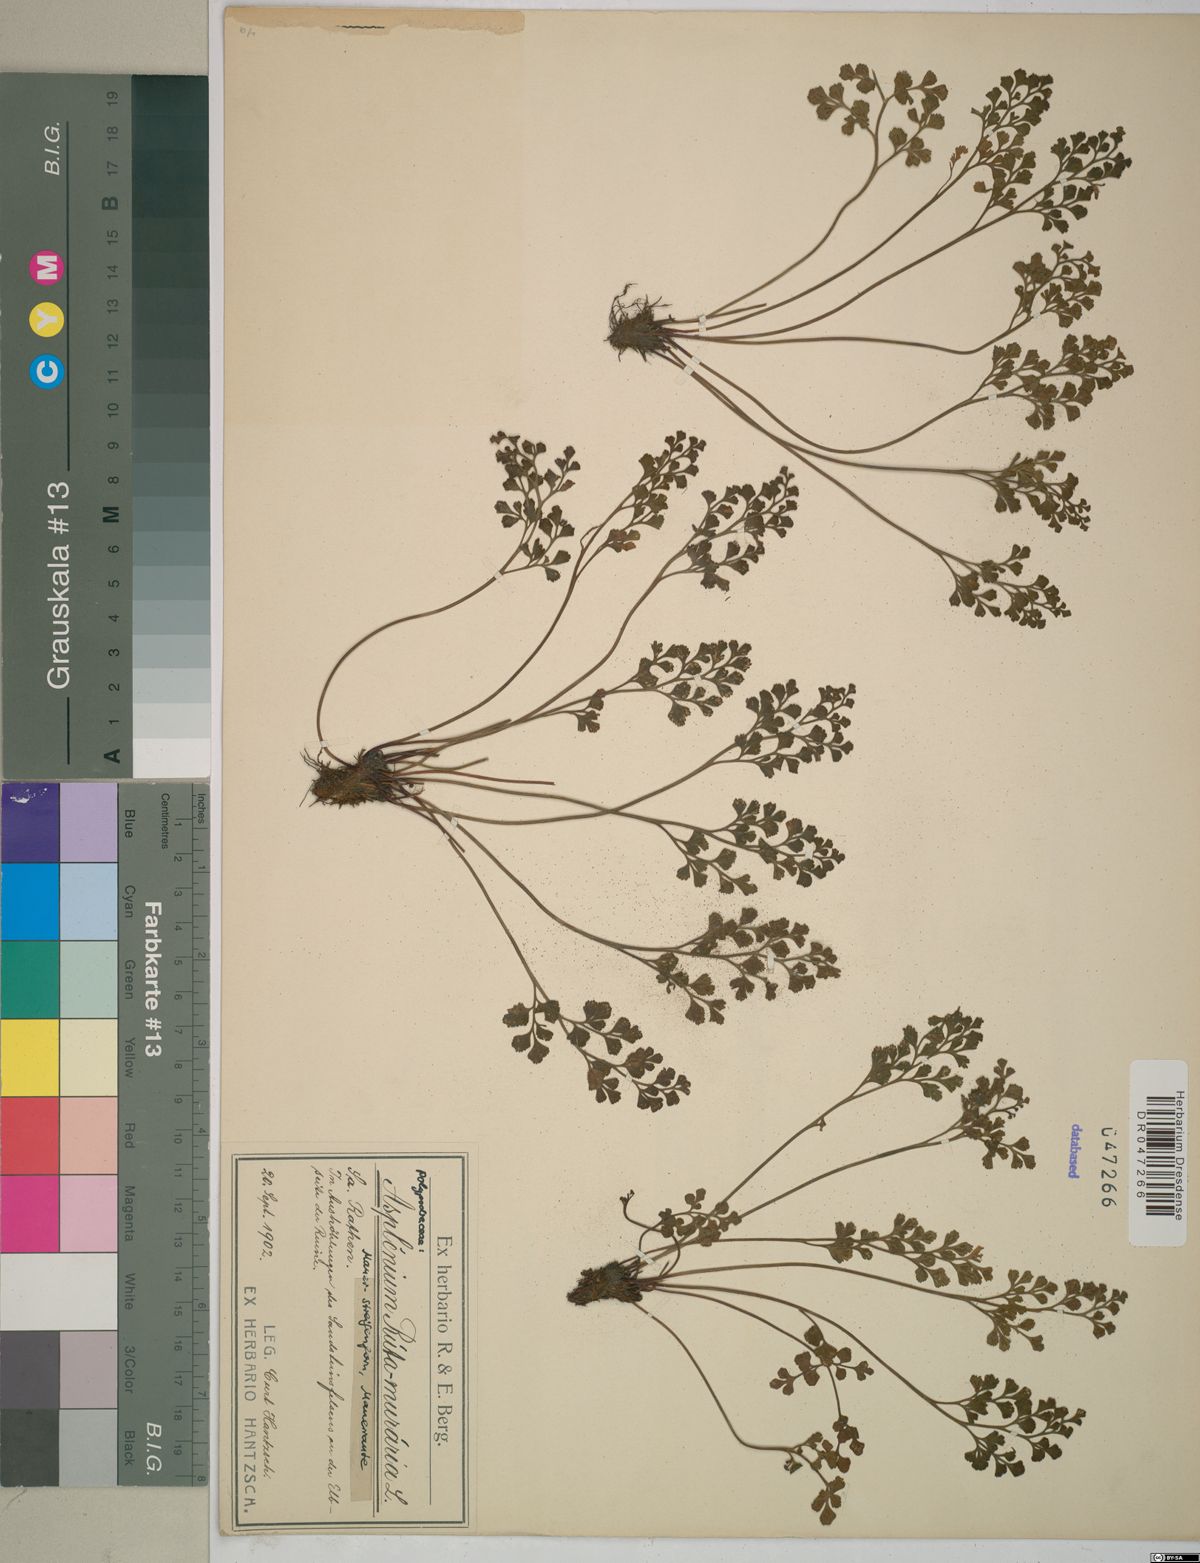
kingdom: Plantae
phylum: Tracheophyta
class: Polypodiopsida
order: Polypodiales
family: Aspleniaceae
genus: Asplenium
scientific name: Asplenium ruta-muraria
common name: Wall-rue
